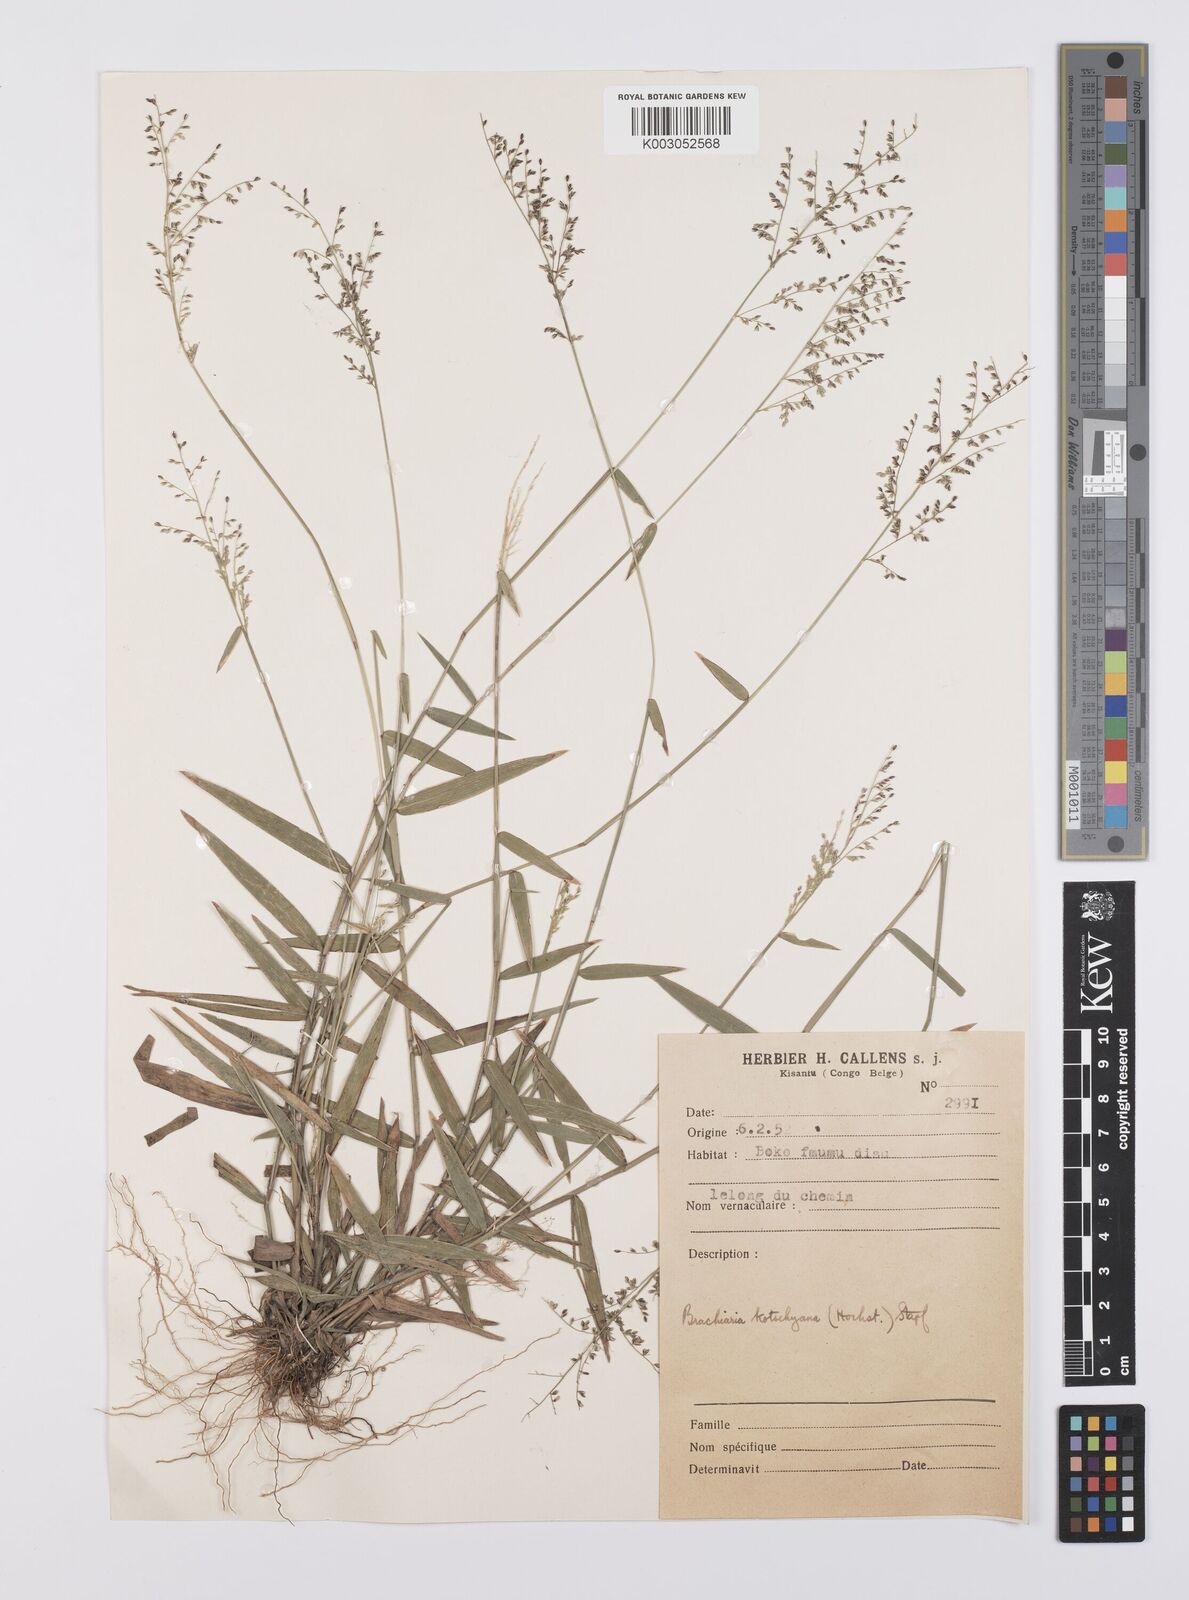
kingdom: Plantae
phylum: Tracheophyta
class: Liliopsida
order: Poales
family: Poaceae
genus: Urochloa
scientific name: Urochloa comata
